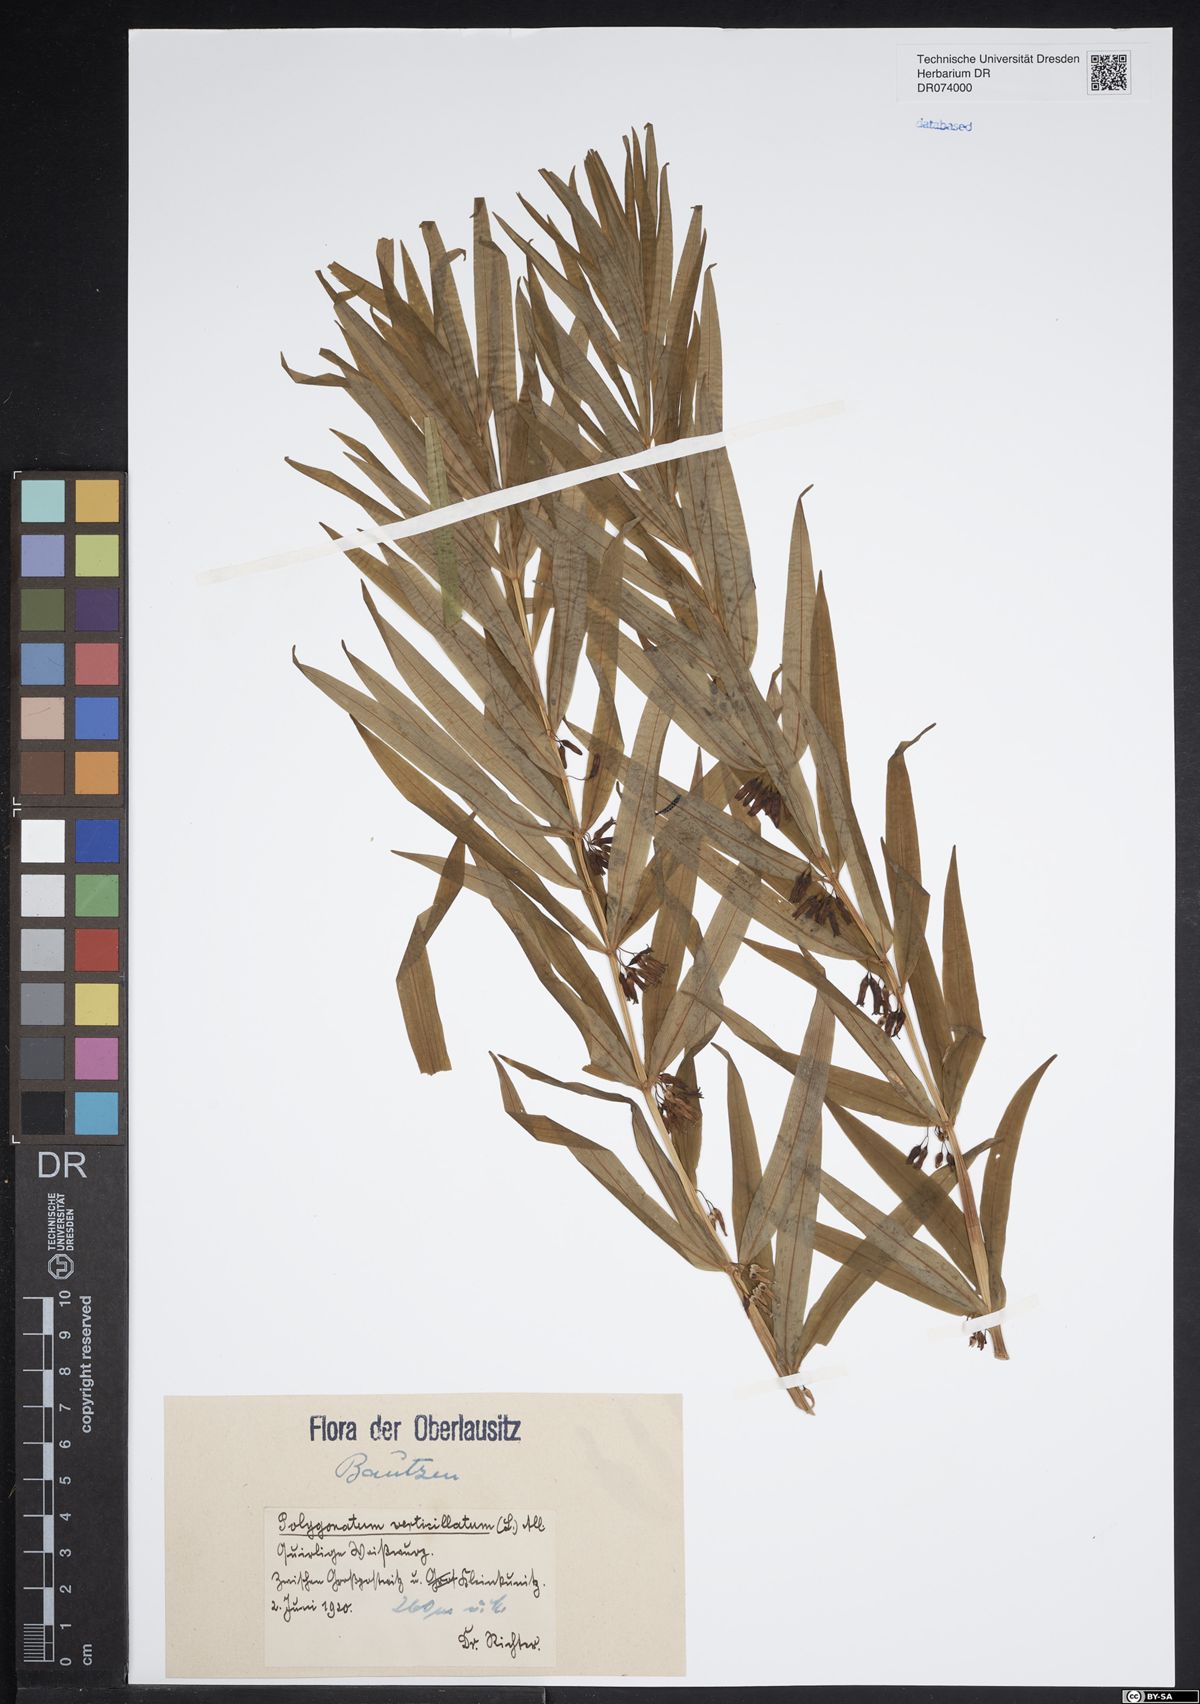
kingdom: Plantae
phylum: Tracheophyta
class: Liliopsida
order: Asparagales
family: Asparagaceae
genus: Polygonatum
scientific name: Polygonatum verticillatum
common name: Whorled solomon's-seal
